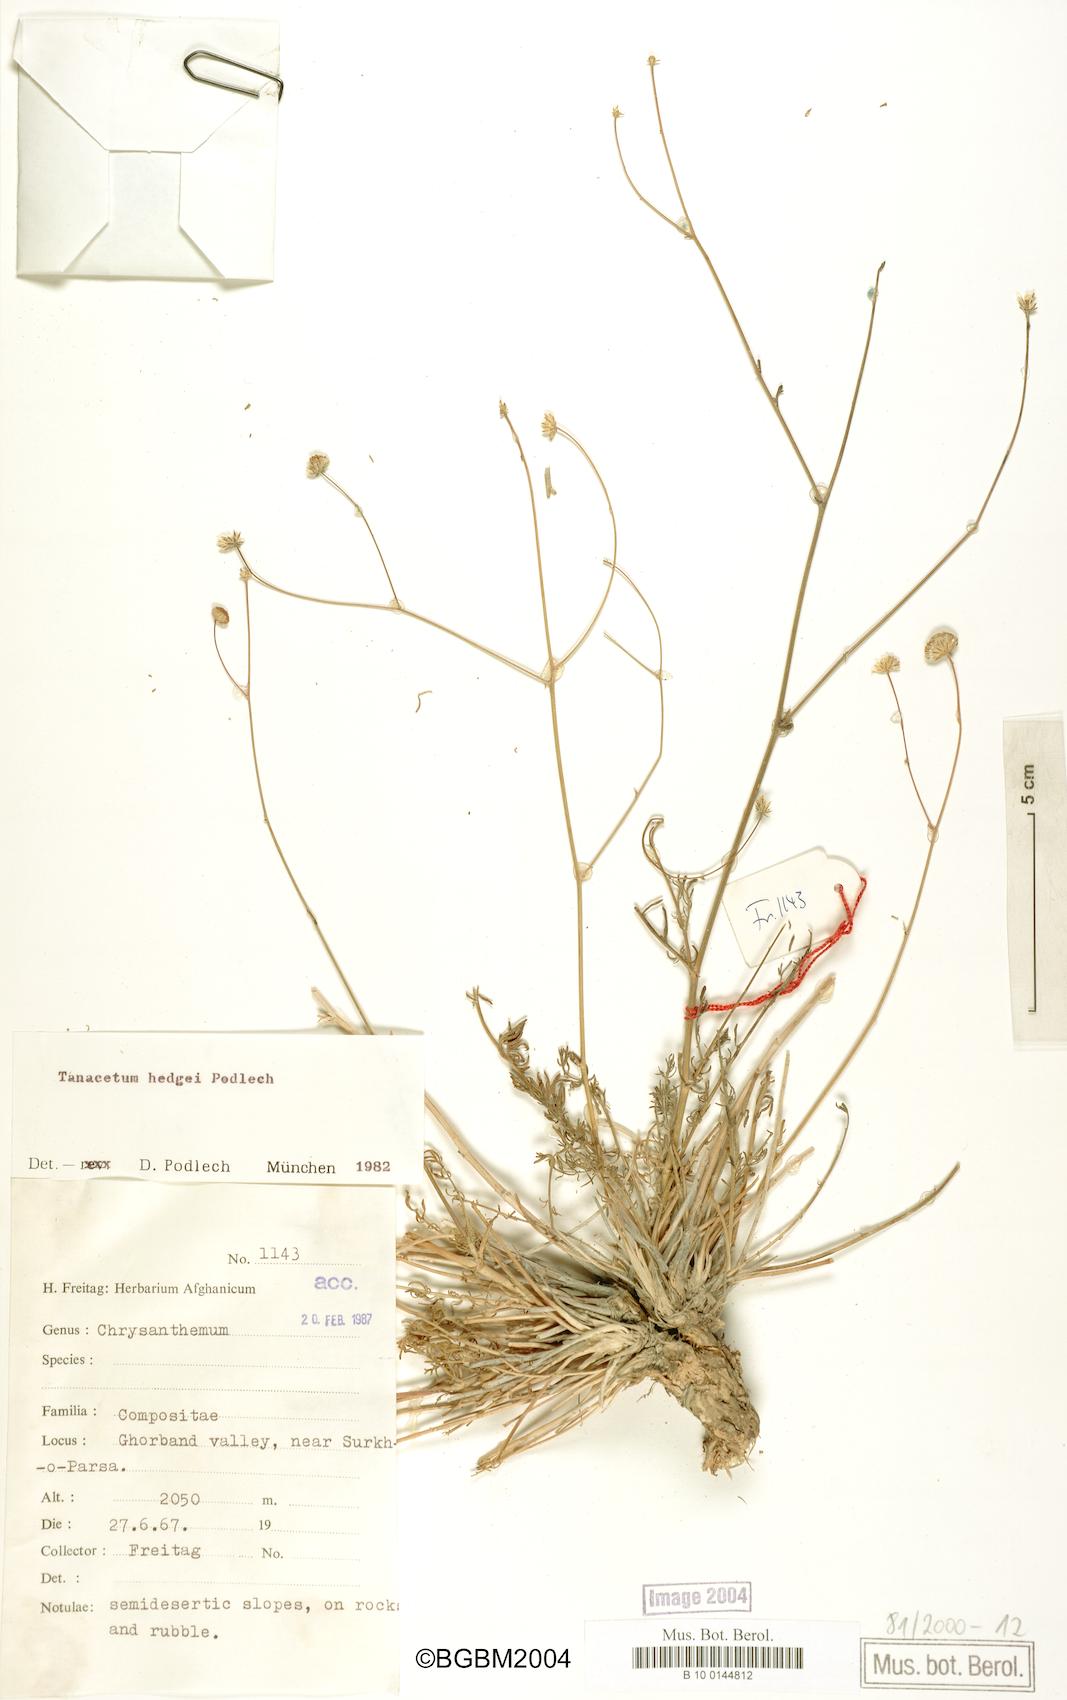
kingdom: Plantae
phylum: Tracheophyta
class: Magnoliopsida
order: Asterales
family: Asteraceae
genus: Tanacetum
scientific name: Tanacetum haradjanii
